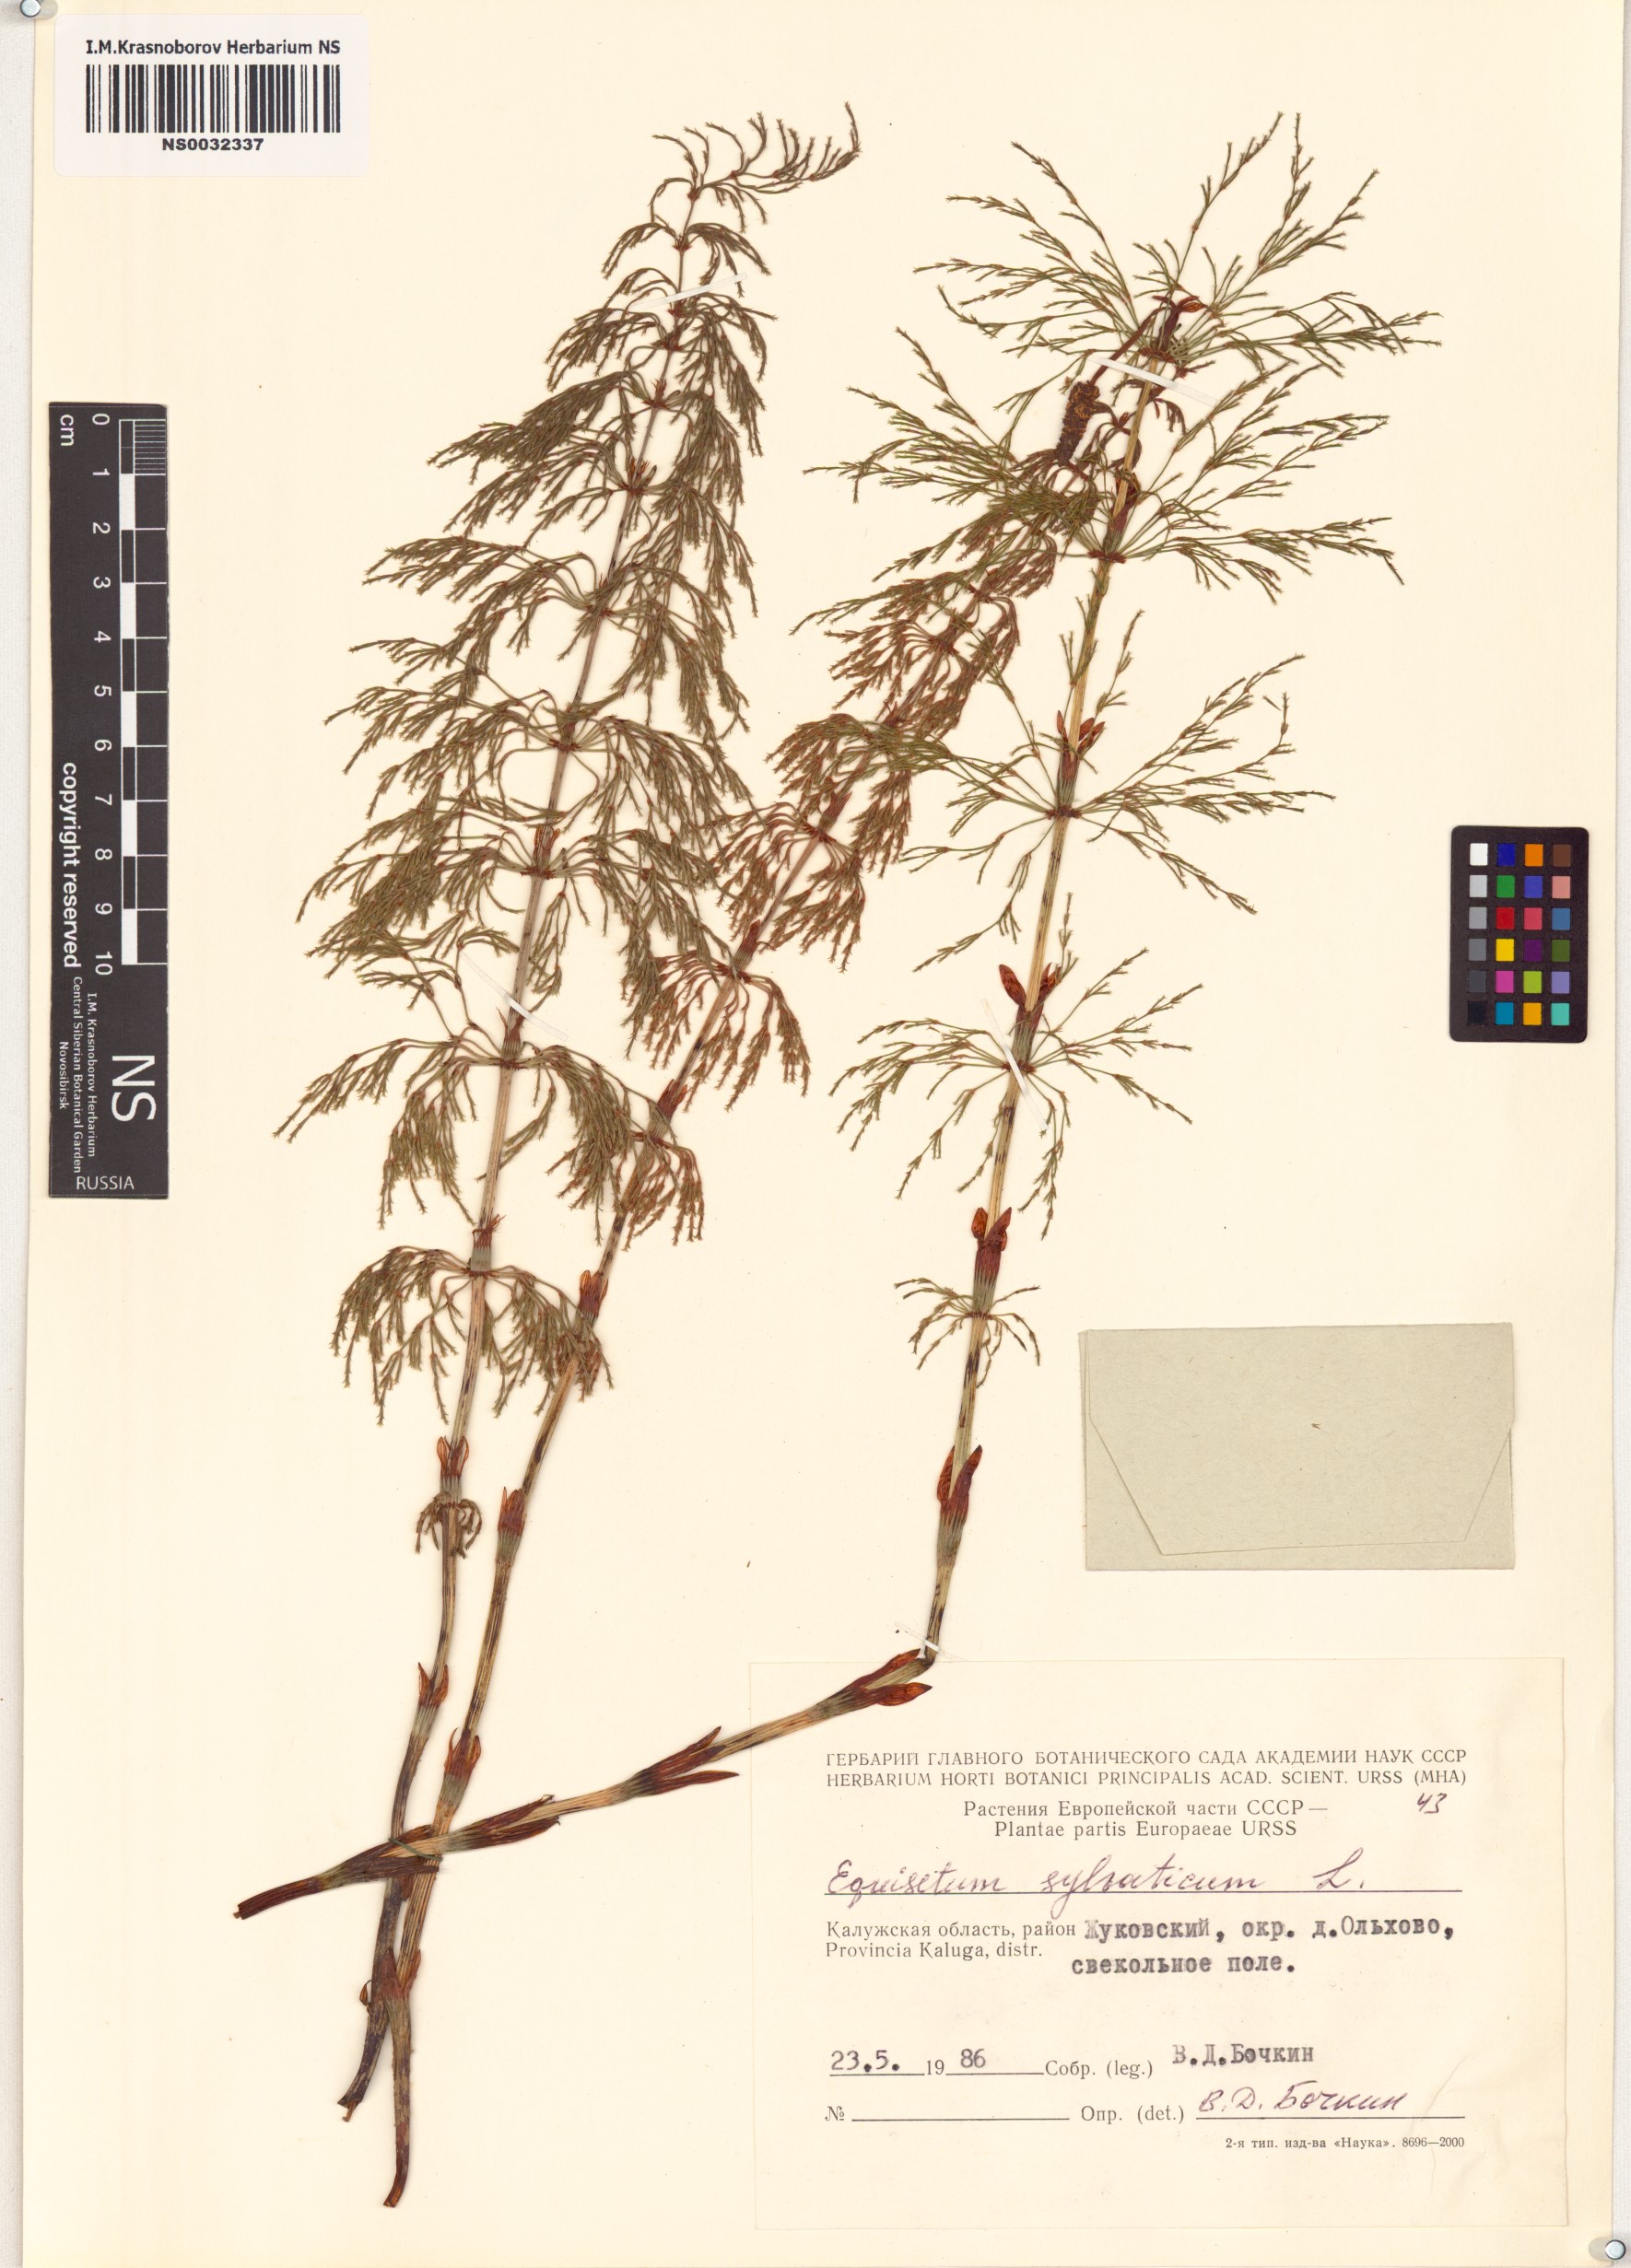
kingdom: Plantae
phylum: Tracheophyta
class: Polypodiopsida
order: Equisetales
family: Equisetaceae
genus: Equisetum
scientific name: Equisetum sylvaticum
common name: Wood horsetail
